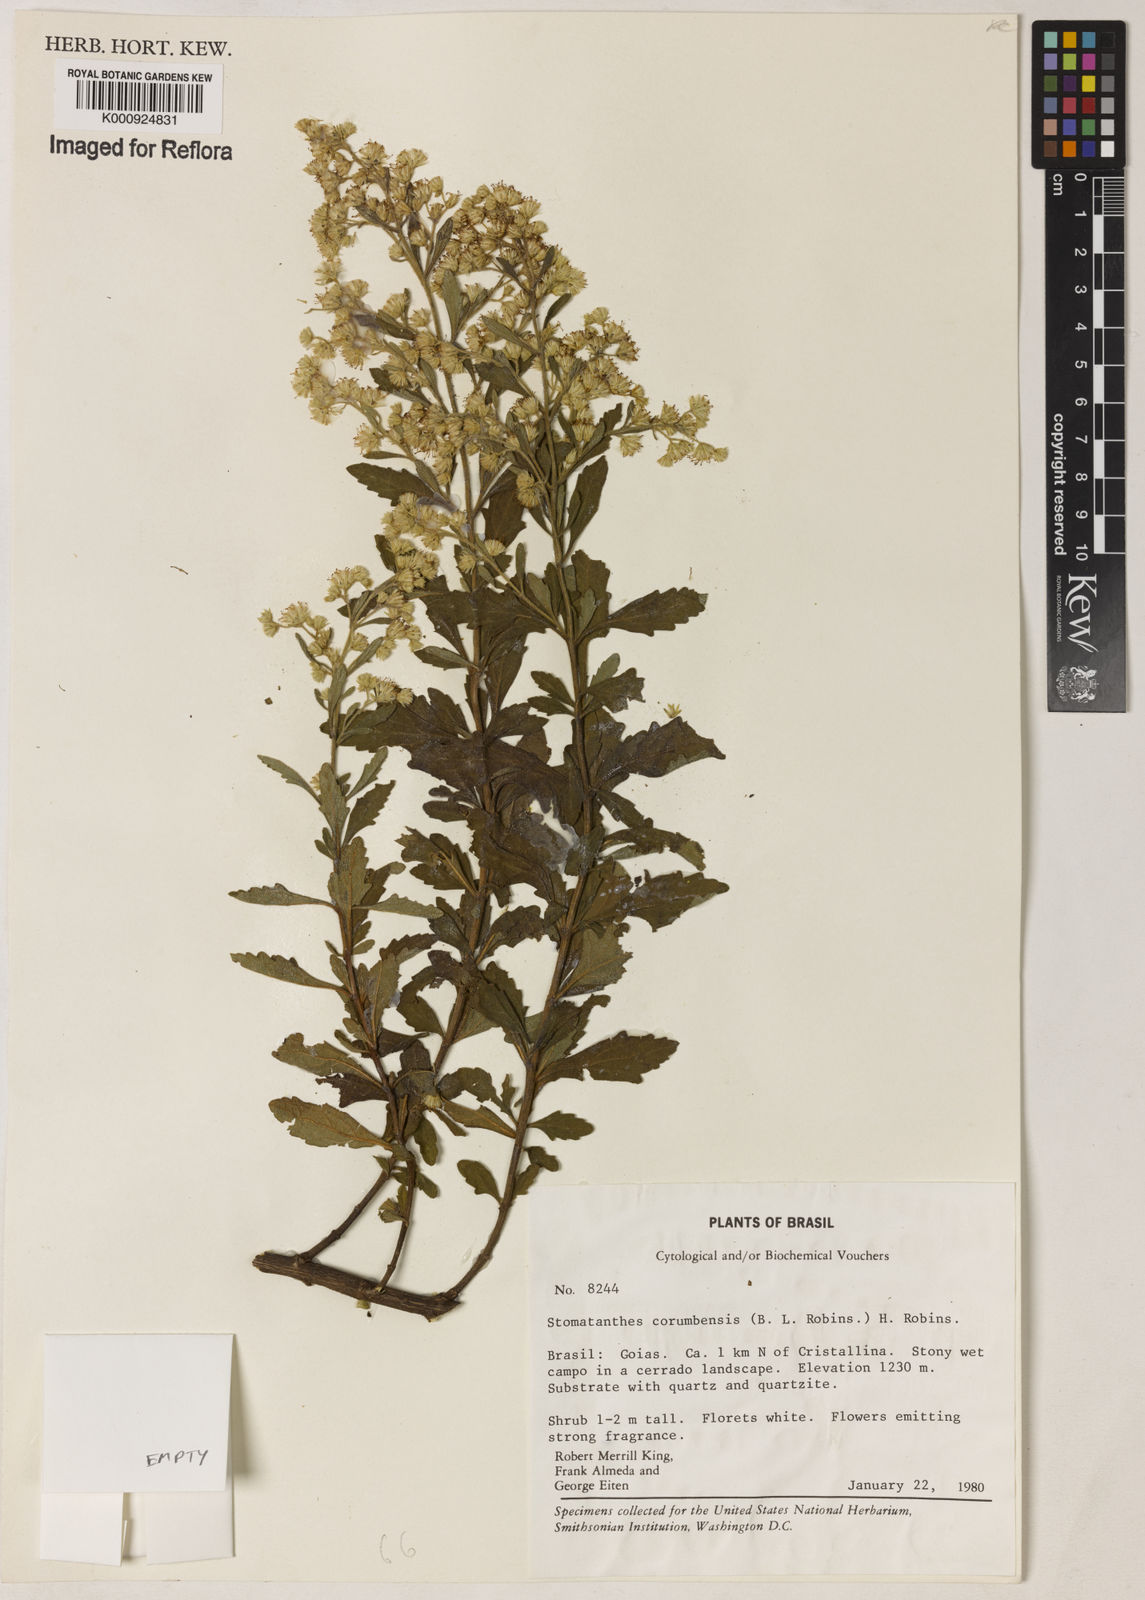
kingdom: Plantae
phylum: Tracheophyta
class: Magnoliopsida
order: Asterales
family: Asteraceae
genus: Stomatanthes
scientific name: Stomatanthes
